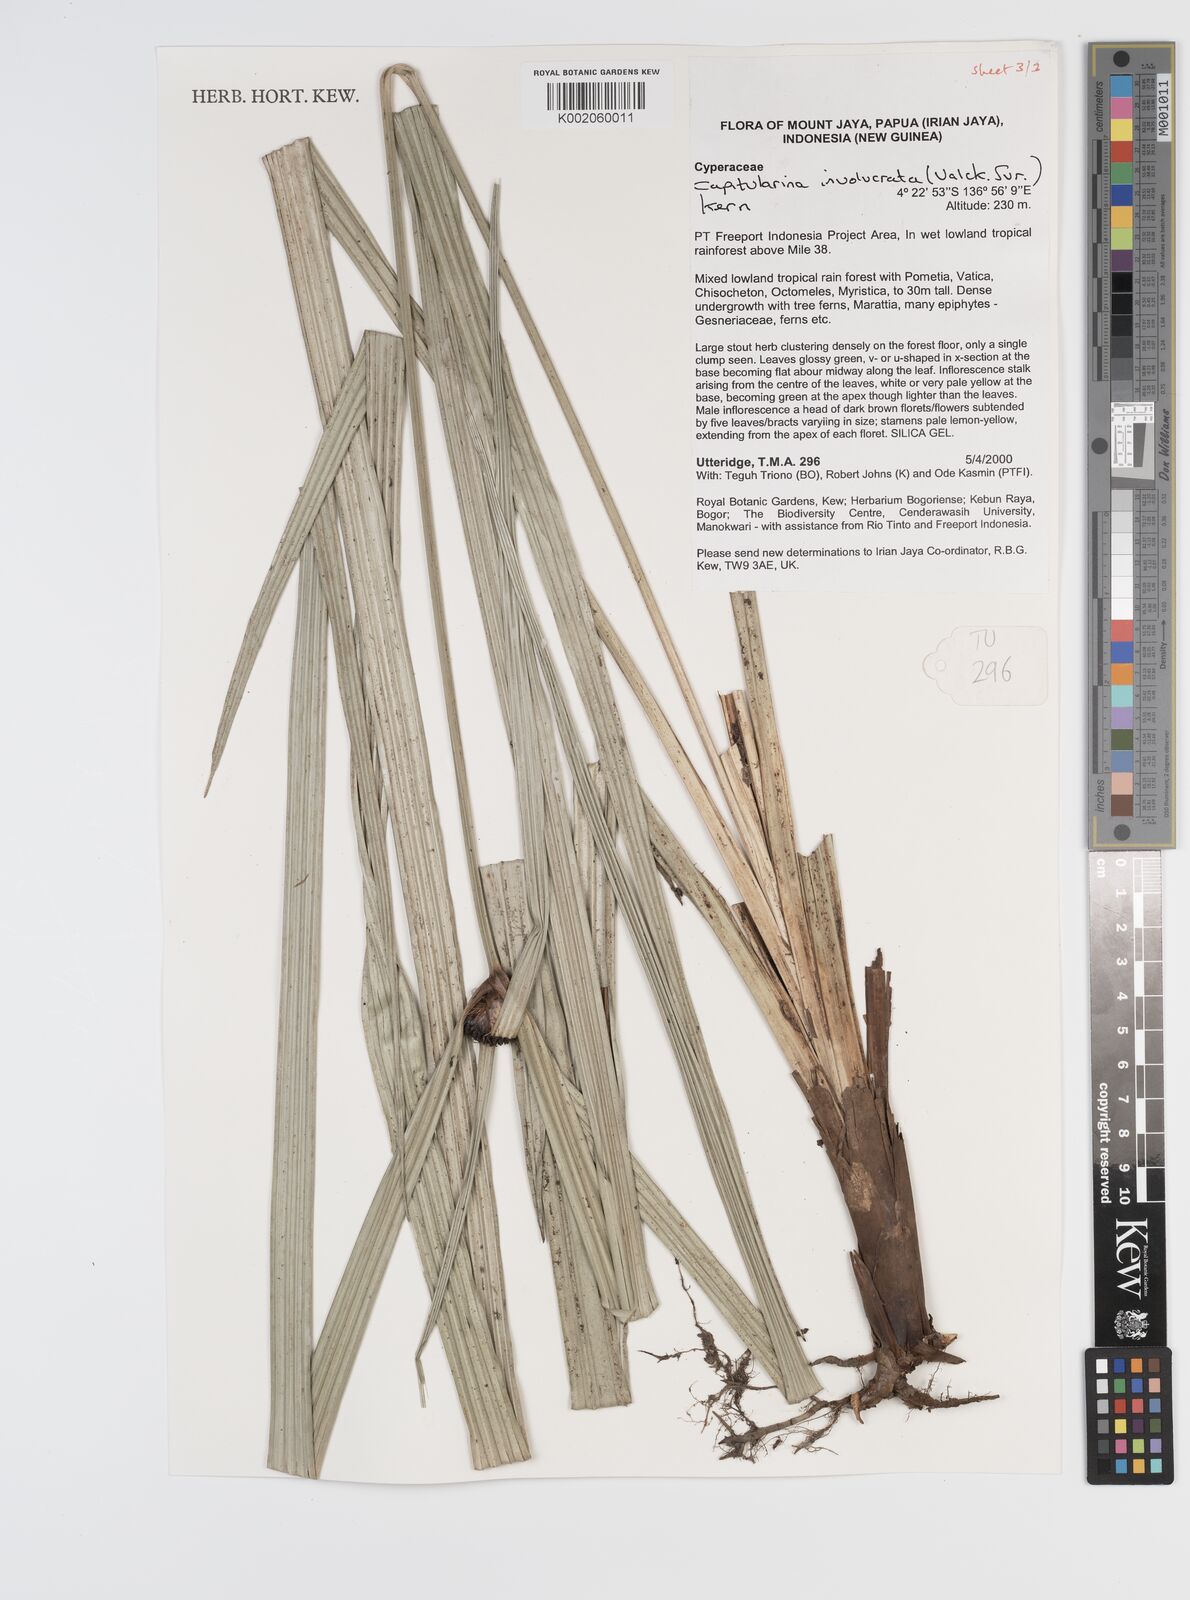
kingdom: Plantae
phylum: Tracheophyta
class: Liliopsida
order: Poales
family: Cyperaceae
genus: Capitularina
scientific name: Capitularina involucrata
